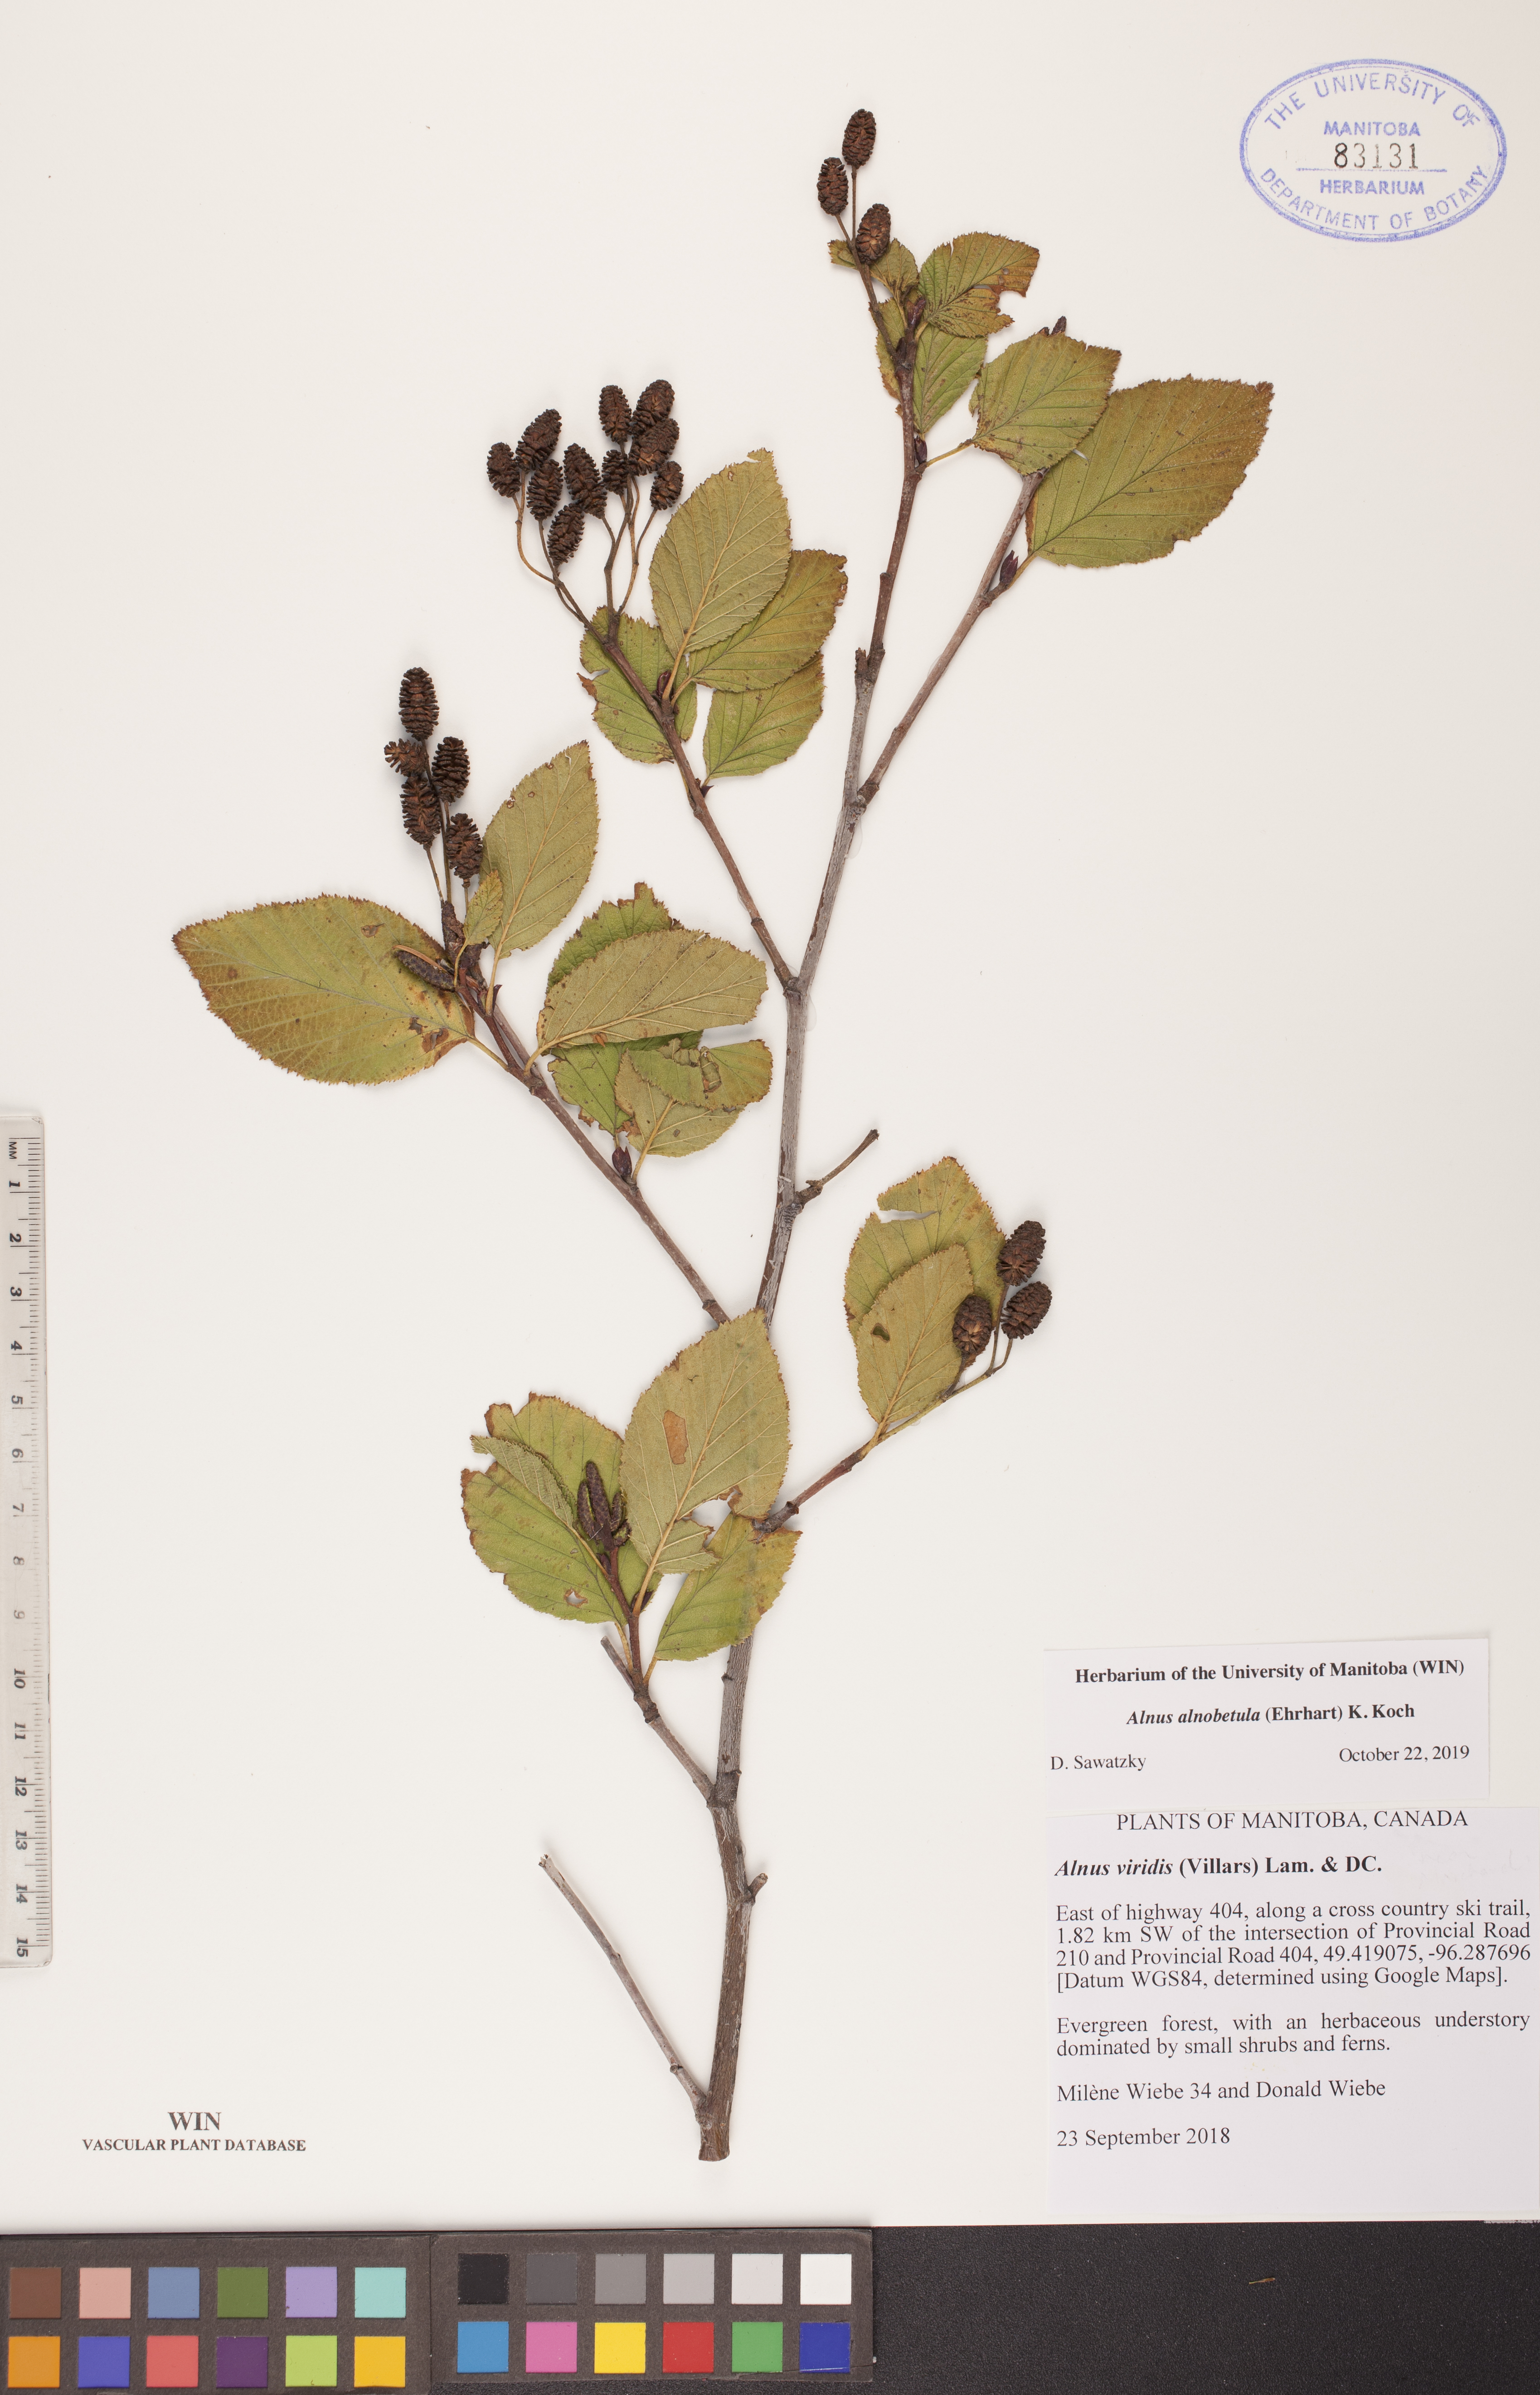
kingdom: Plantae
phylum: Tracheophyta
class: Magnoliopsida
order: Fagales
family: Betulaceae
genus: Alnus
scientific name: Alnus alnobetula
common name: Green alder
